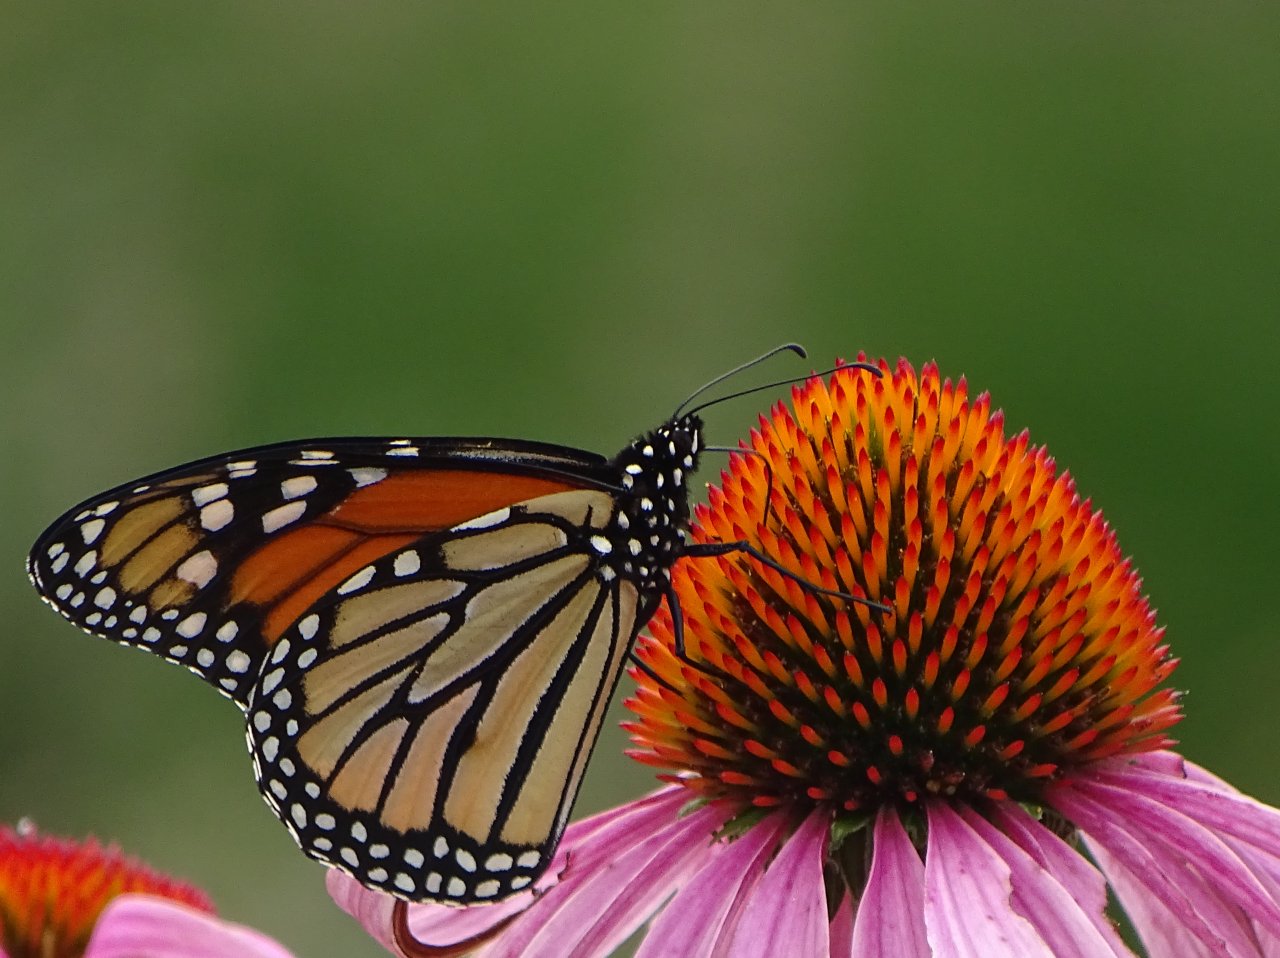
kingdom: Animalia
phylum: Arthropoda
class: Insecta
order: Lepidoptera
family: Nymphalidae
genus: Danaus
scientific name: Danaus plexippus
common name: Monarch
